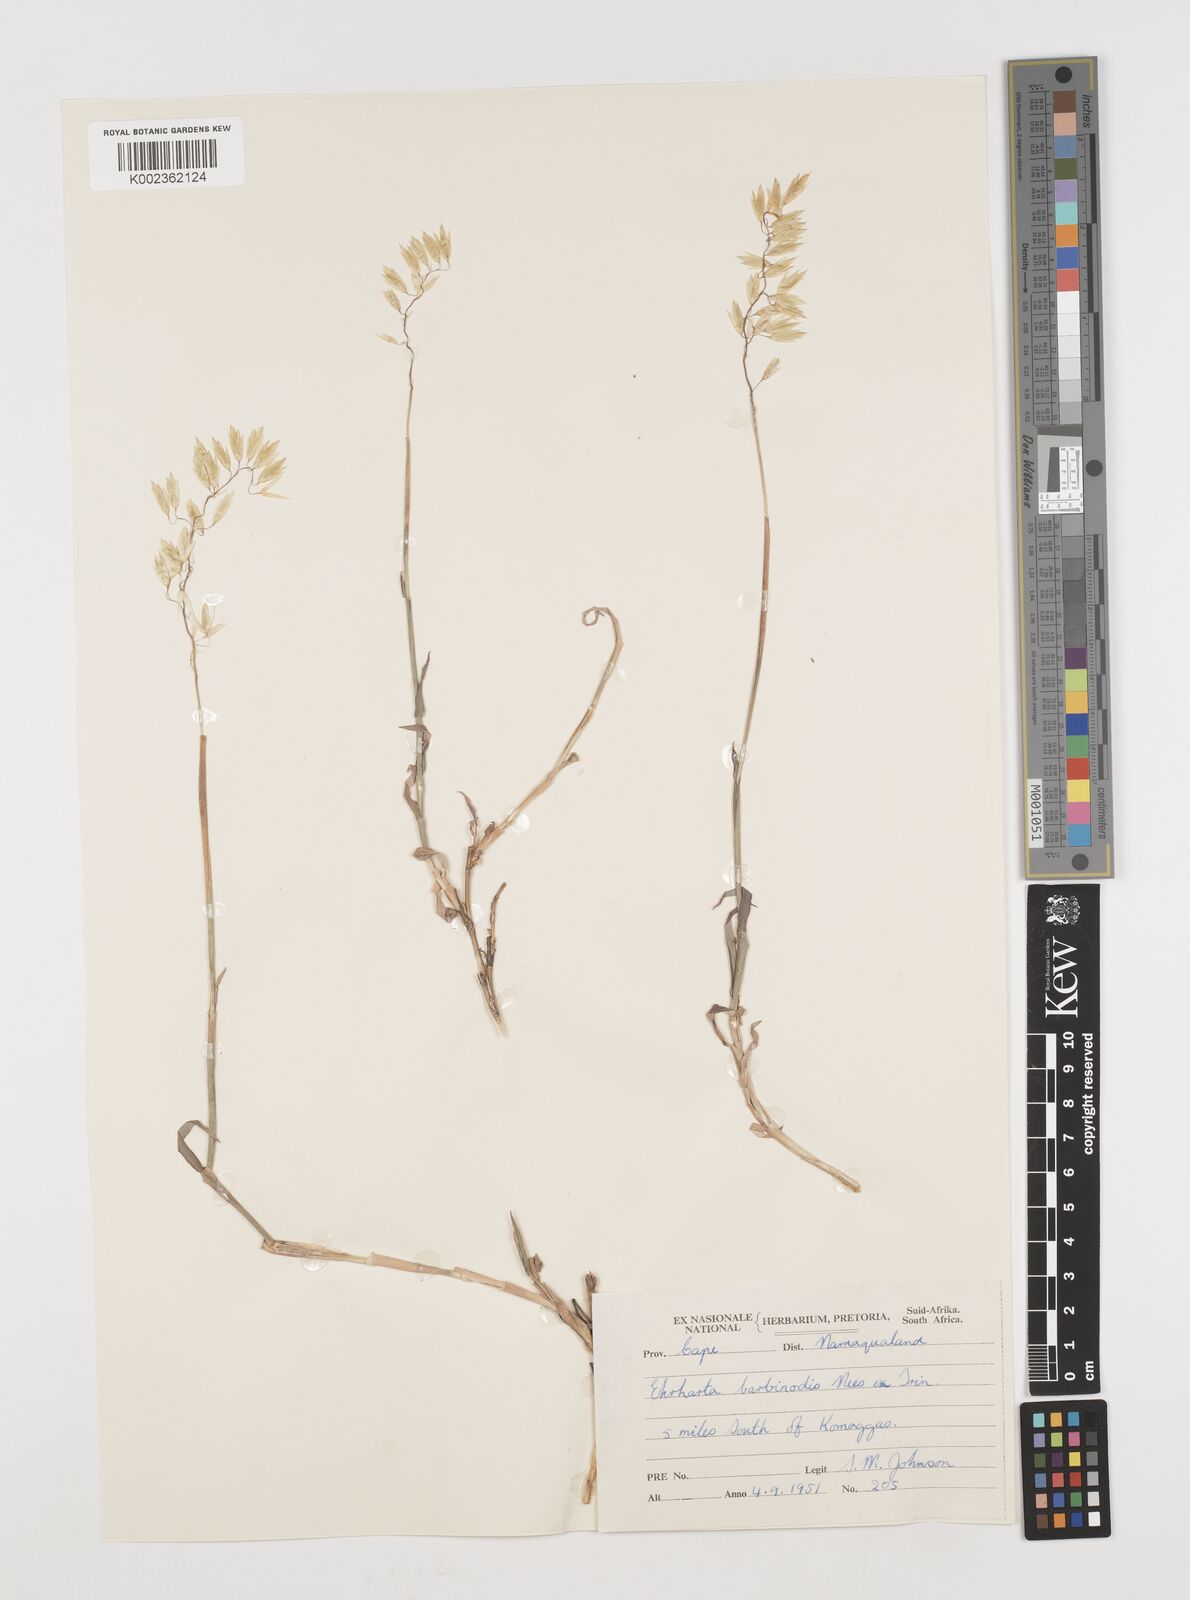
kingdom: Plantae
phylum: Tracheophyta
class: Liliopsida
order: Poales
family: Poaceae
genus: Ehrharta
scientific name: Ehrharta barbinodis
